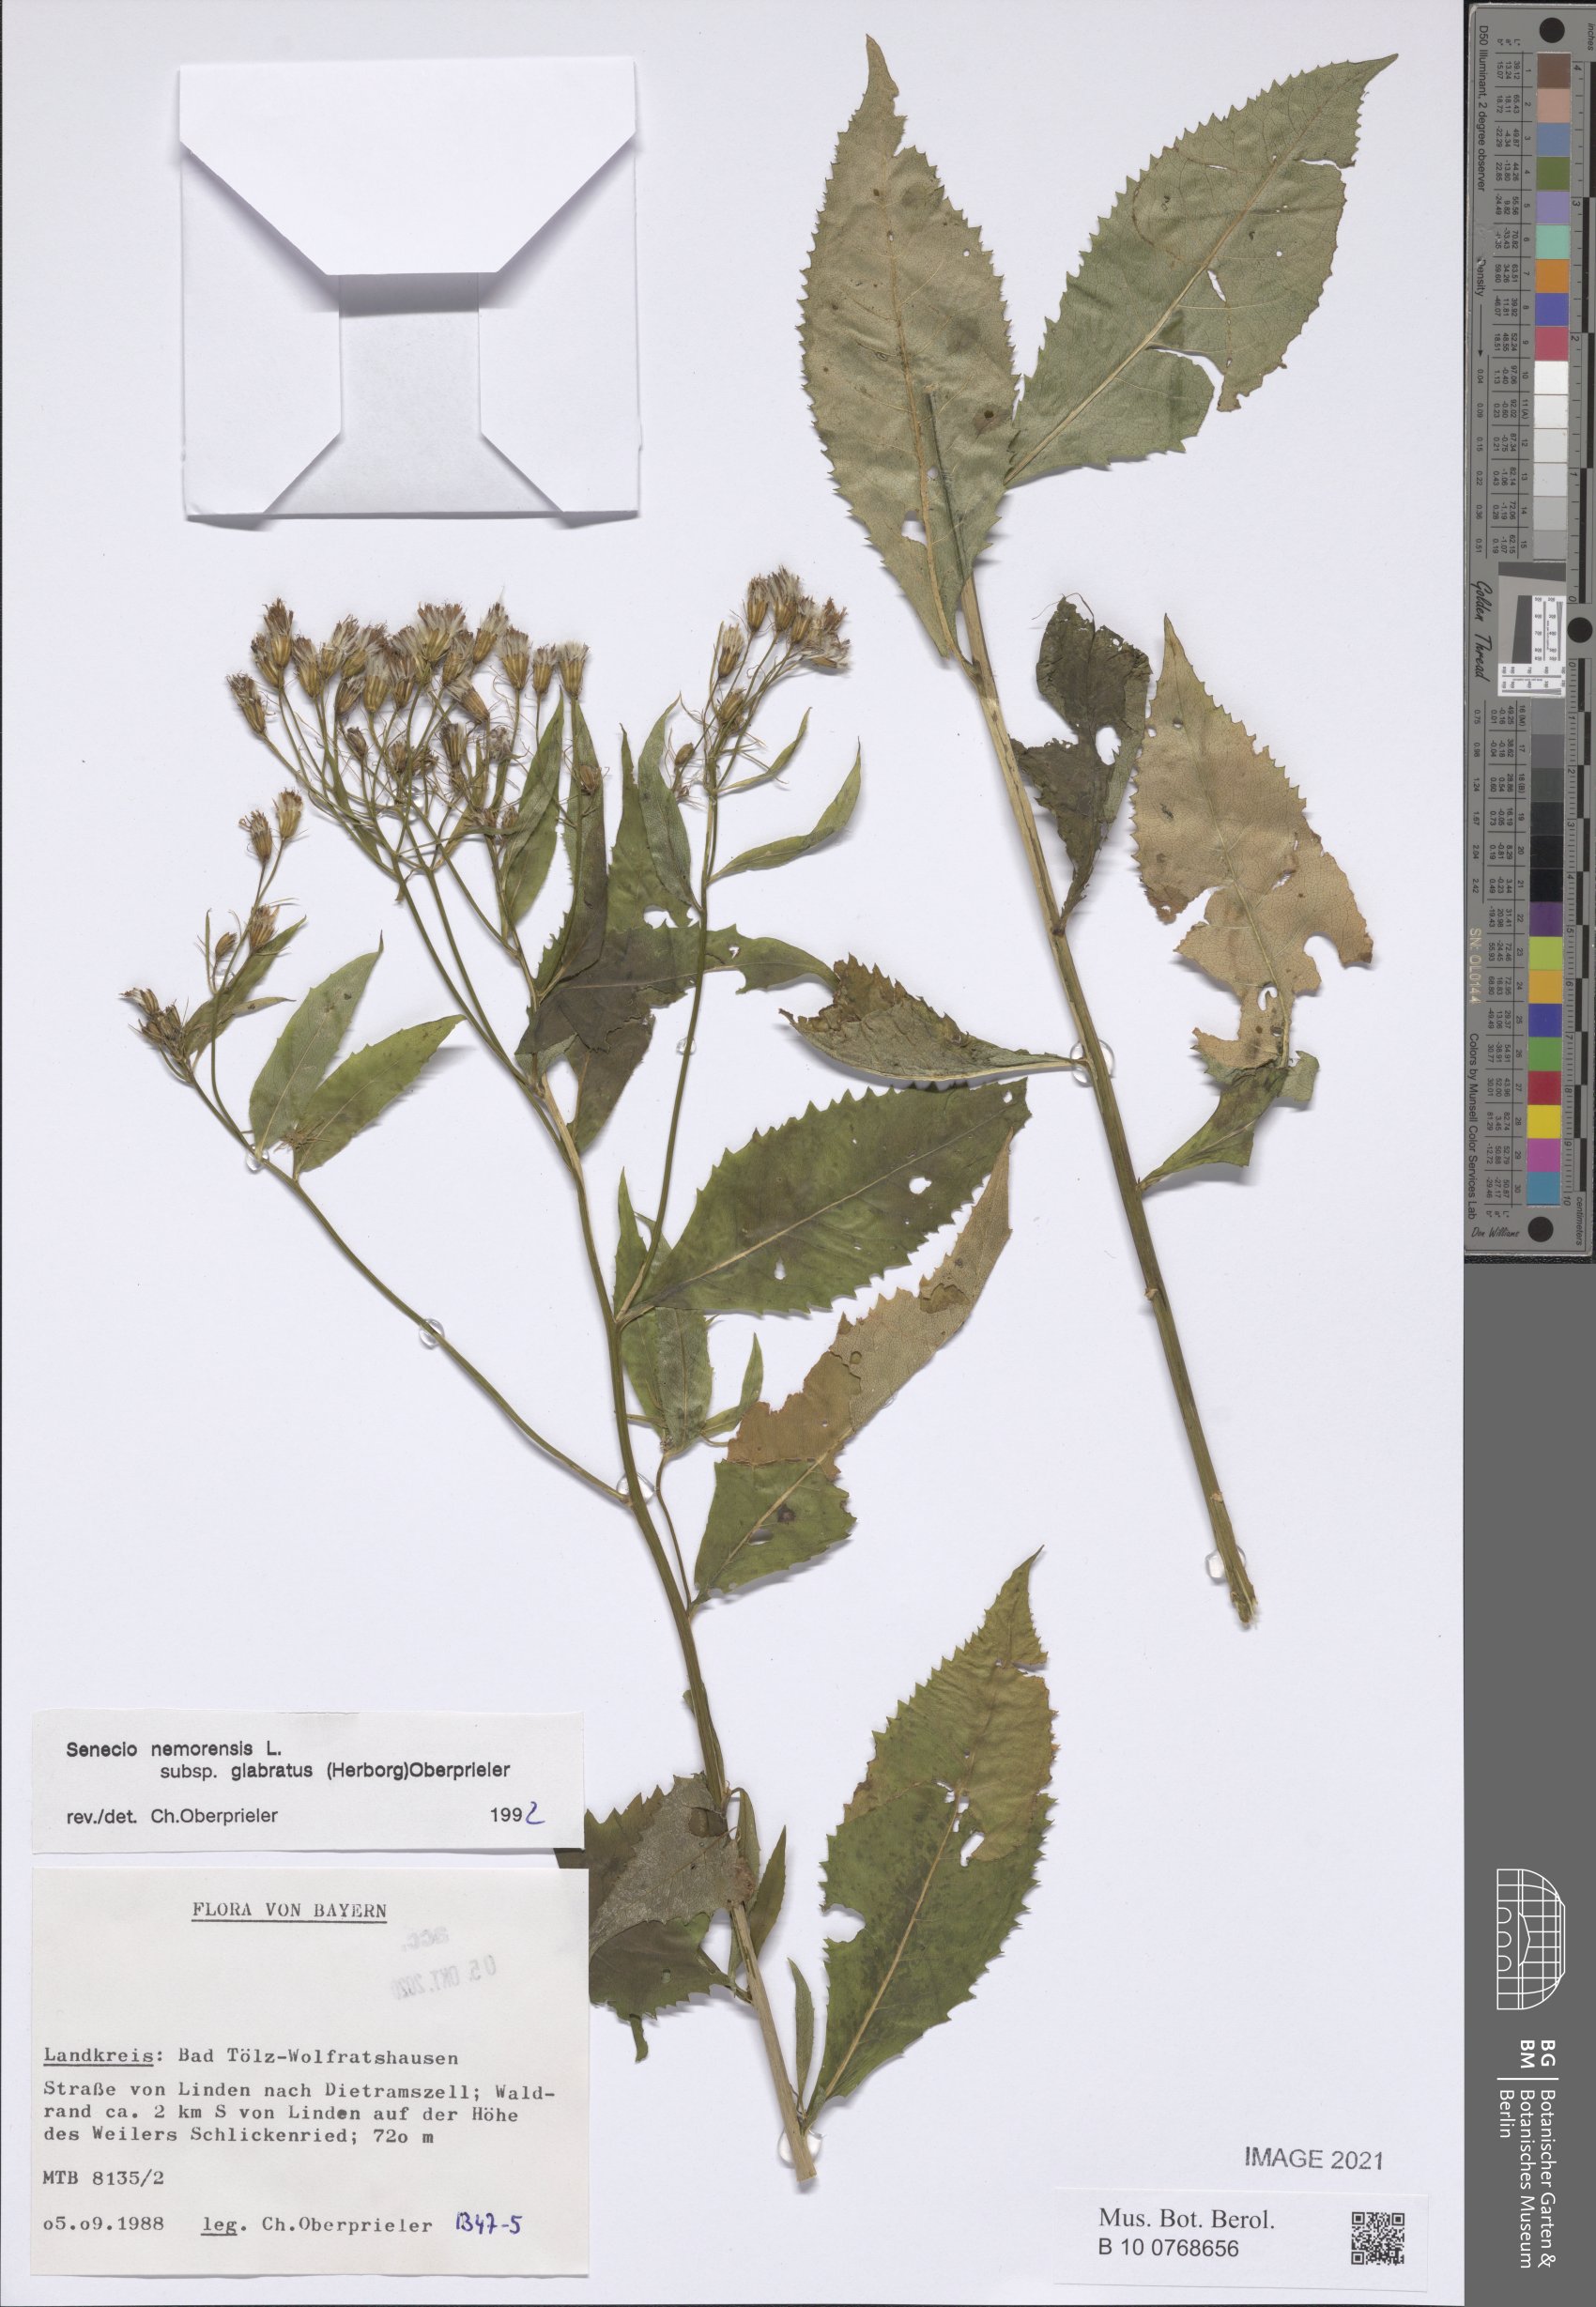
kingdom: Plantae
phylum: Tracheophyta
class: Magnoliopsida
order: Asterales
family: Asteraceae
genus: Senecio
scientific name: Senecio germanicus
